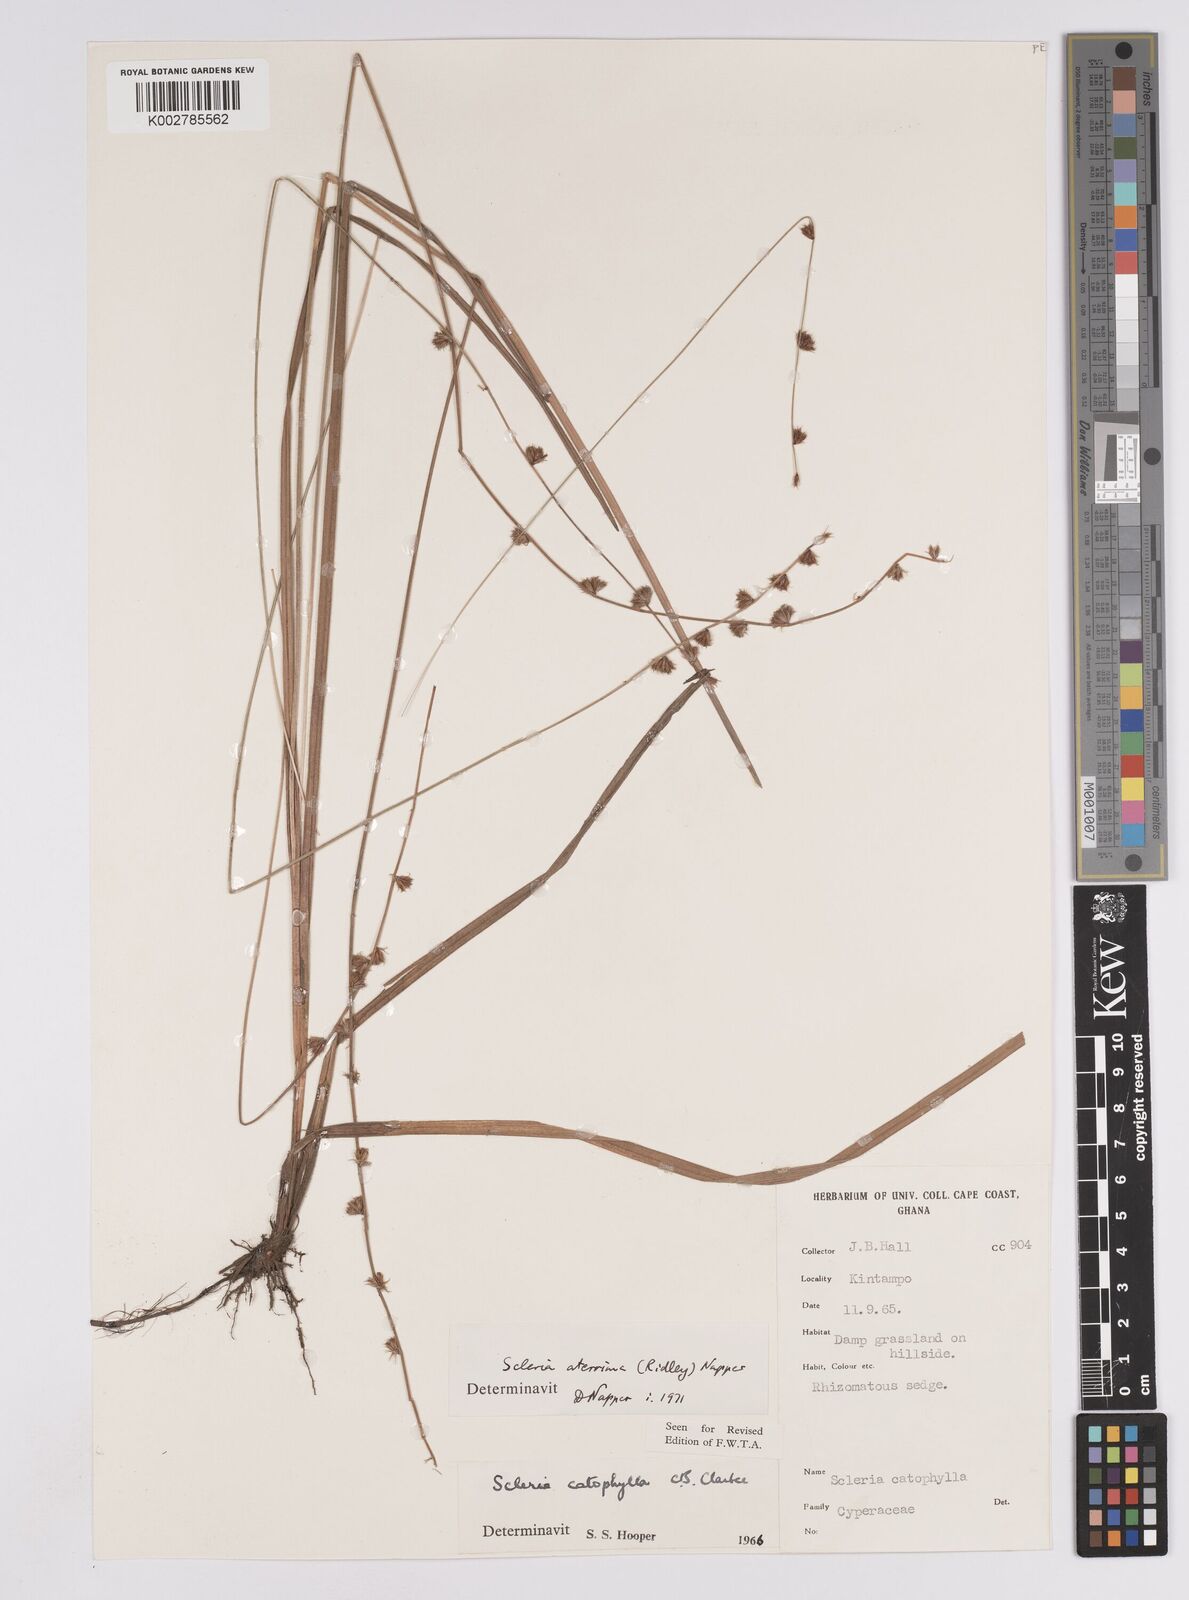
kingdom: Plantae
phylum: Tracheophyta
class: Liliopsida
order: Poales
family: Cyperaceae
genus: Scleria
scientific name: Scleria catophylla
